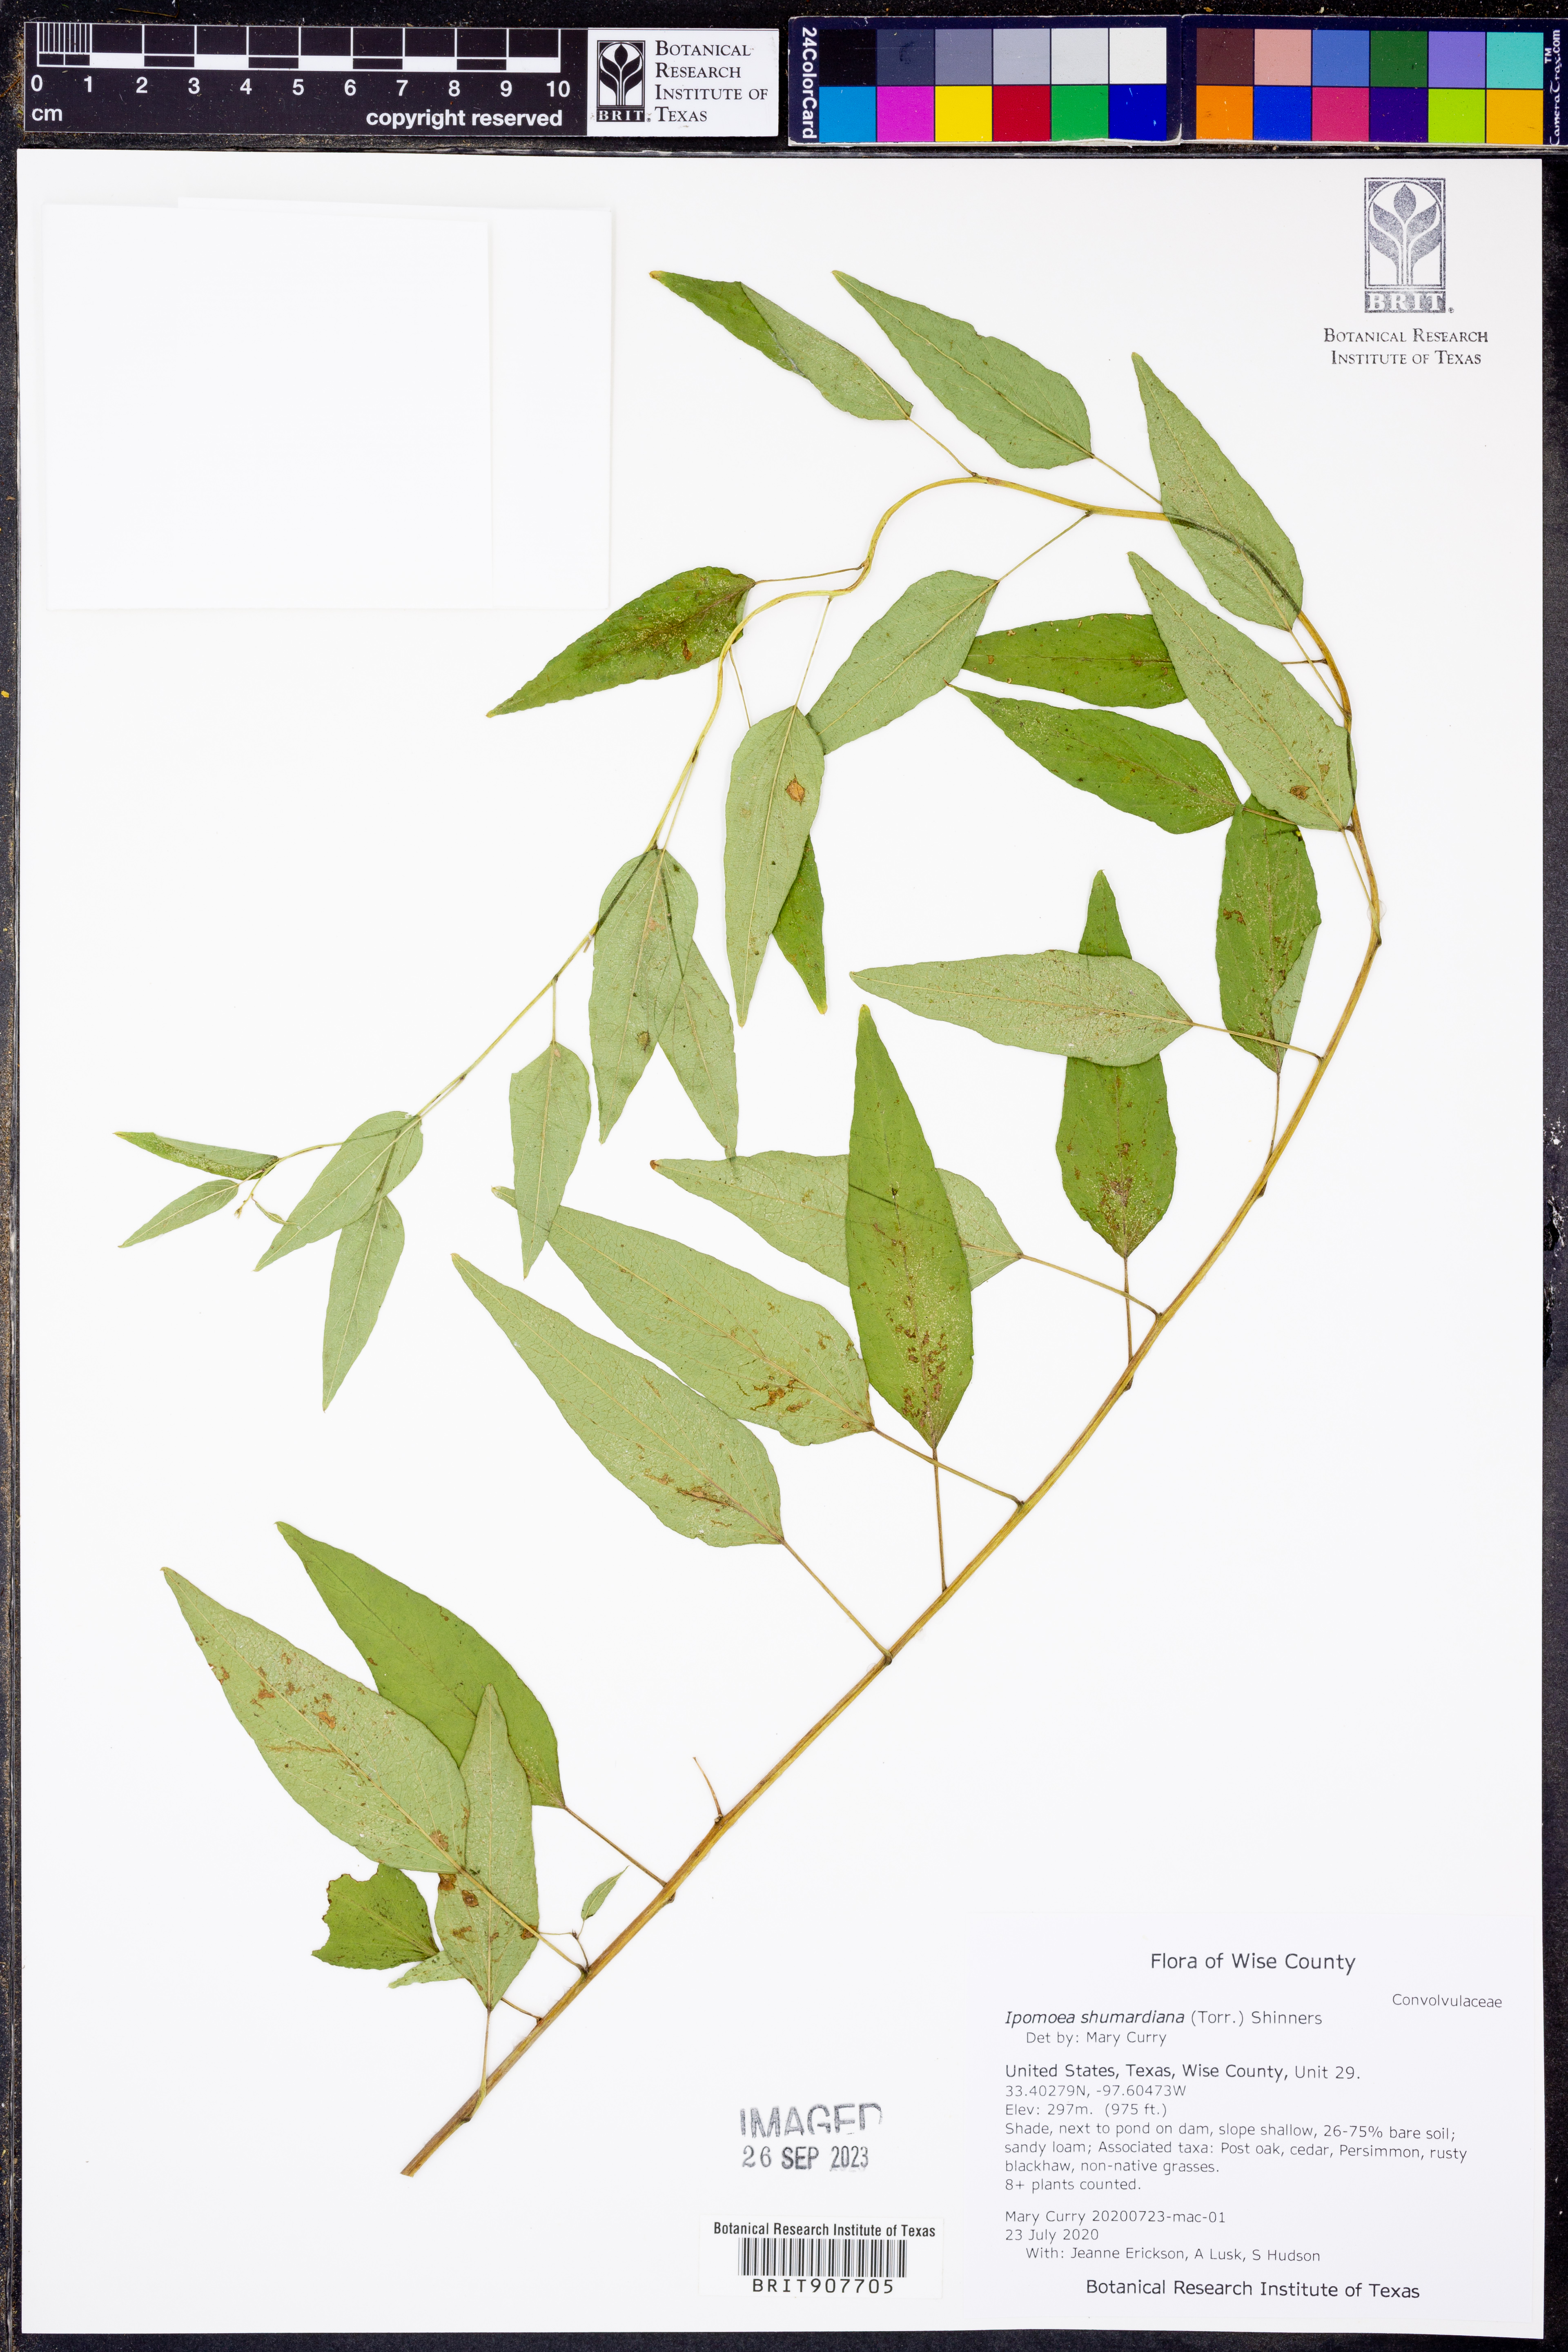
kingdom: Plantae
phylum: Tracheophyta
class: Magnoliopsida
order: Solanales
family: Convolvulaceae
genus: Ipomoea
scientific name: Ipomoea shumardiana
